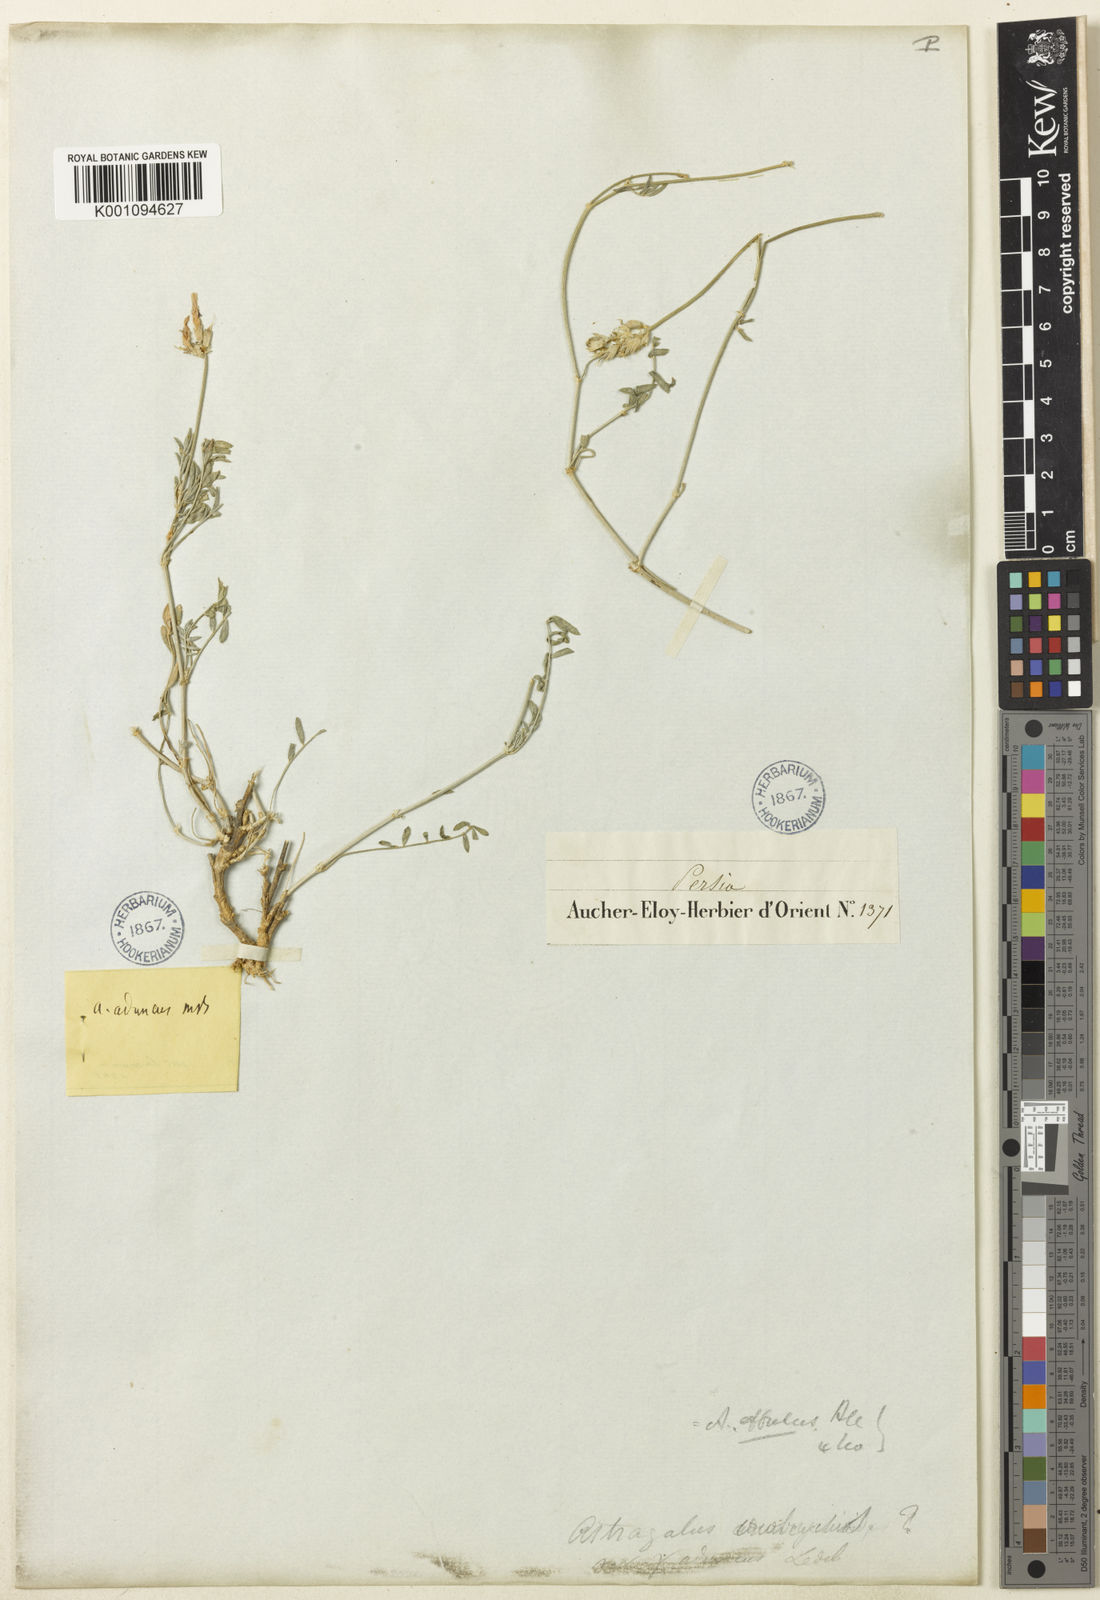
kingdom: Plantae
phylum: Tracheophyta
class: Magnoliopsida
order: Fabales
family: Fabaceae
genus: Astragalus
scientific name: Astragalus
